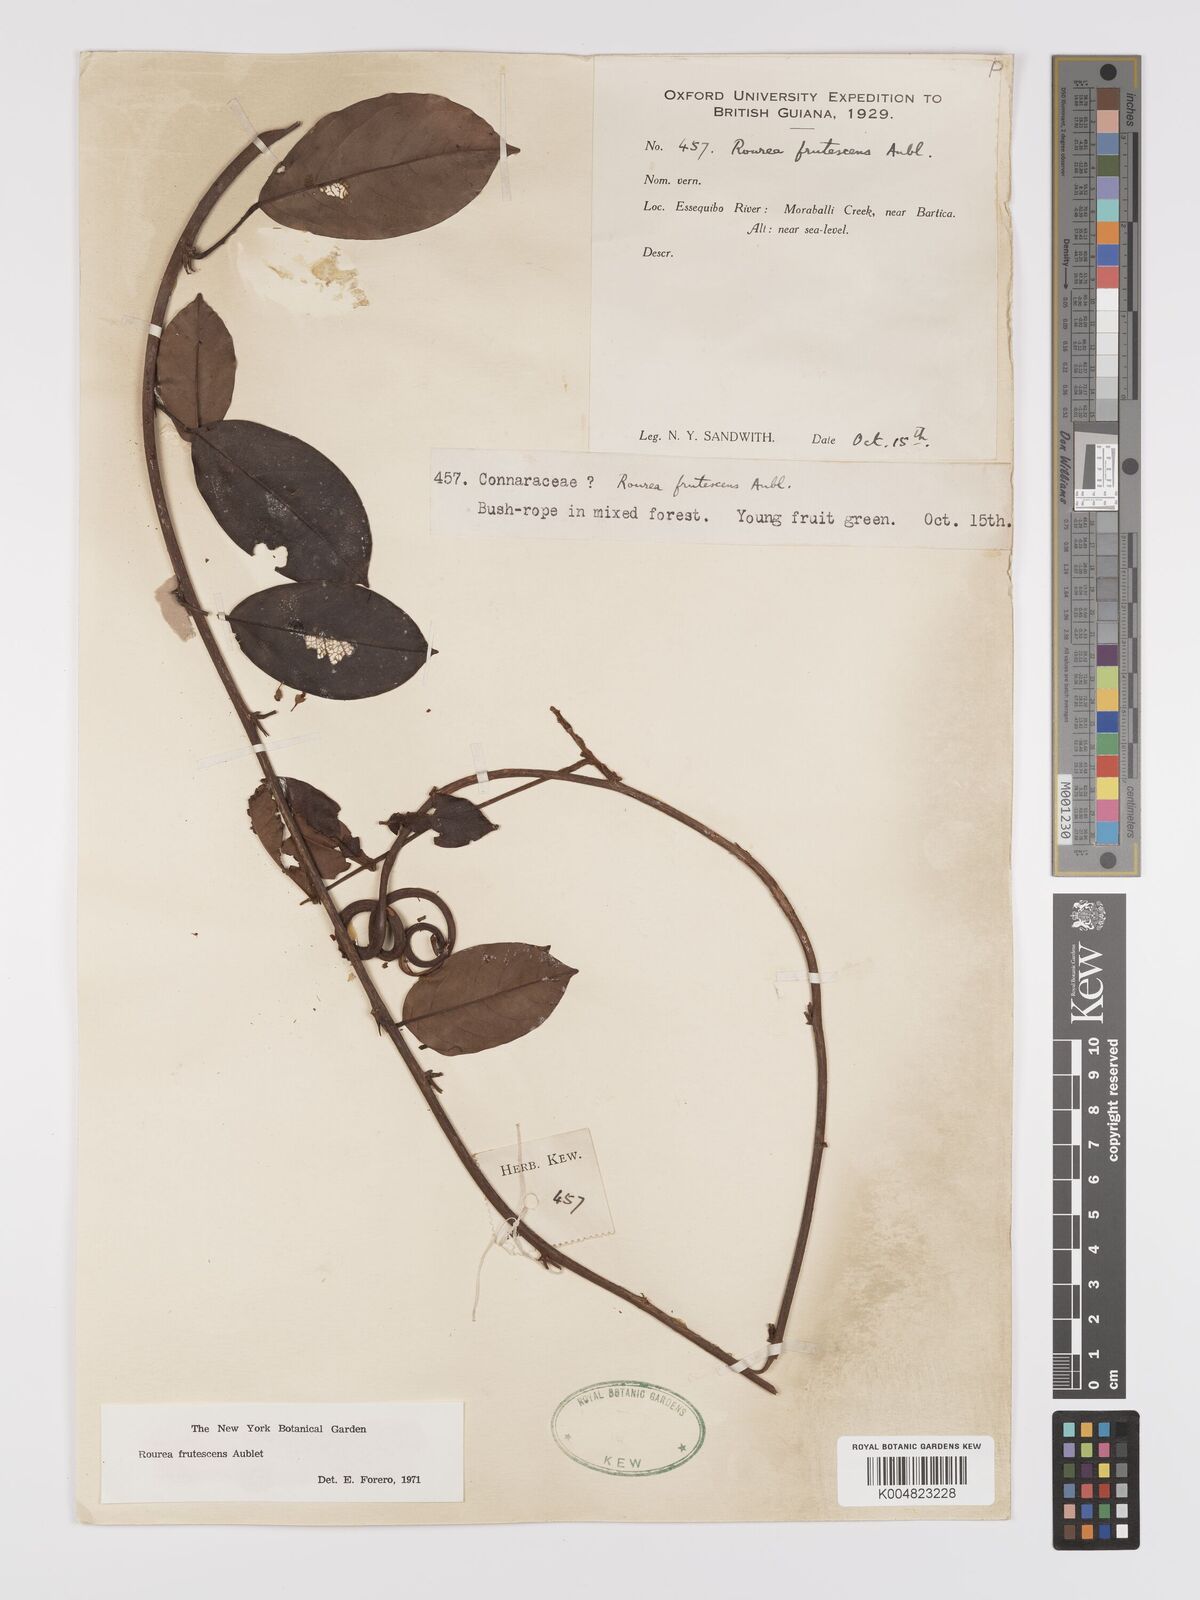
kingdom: Plantae
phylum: Tracheophyta
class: Magnoliopsida
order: Oxalidales
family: Connaraceae
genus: Rourea
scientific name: Rourea frutescens
